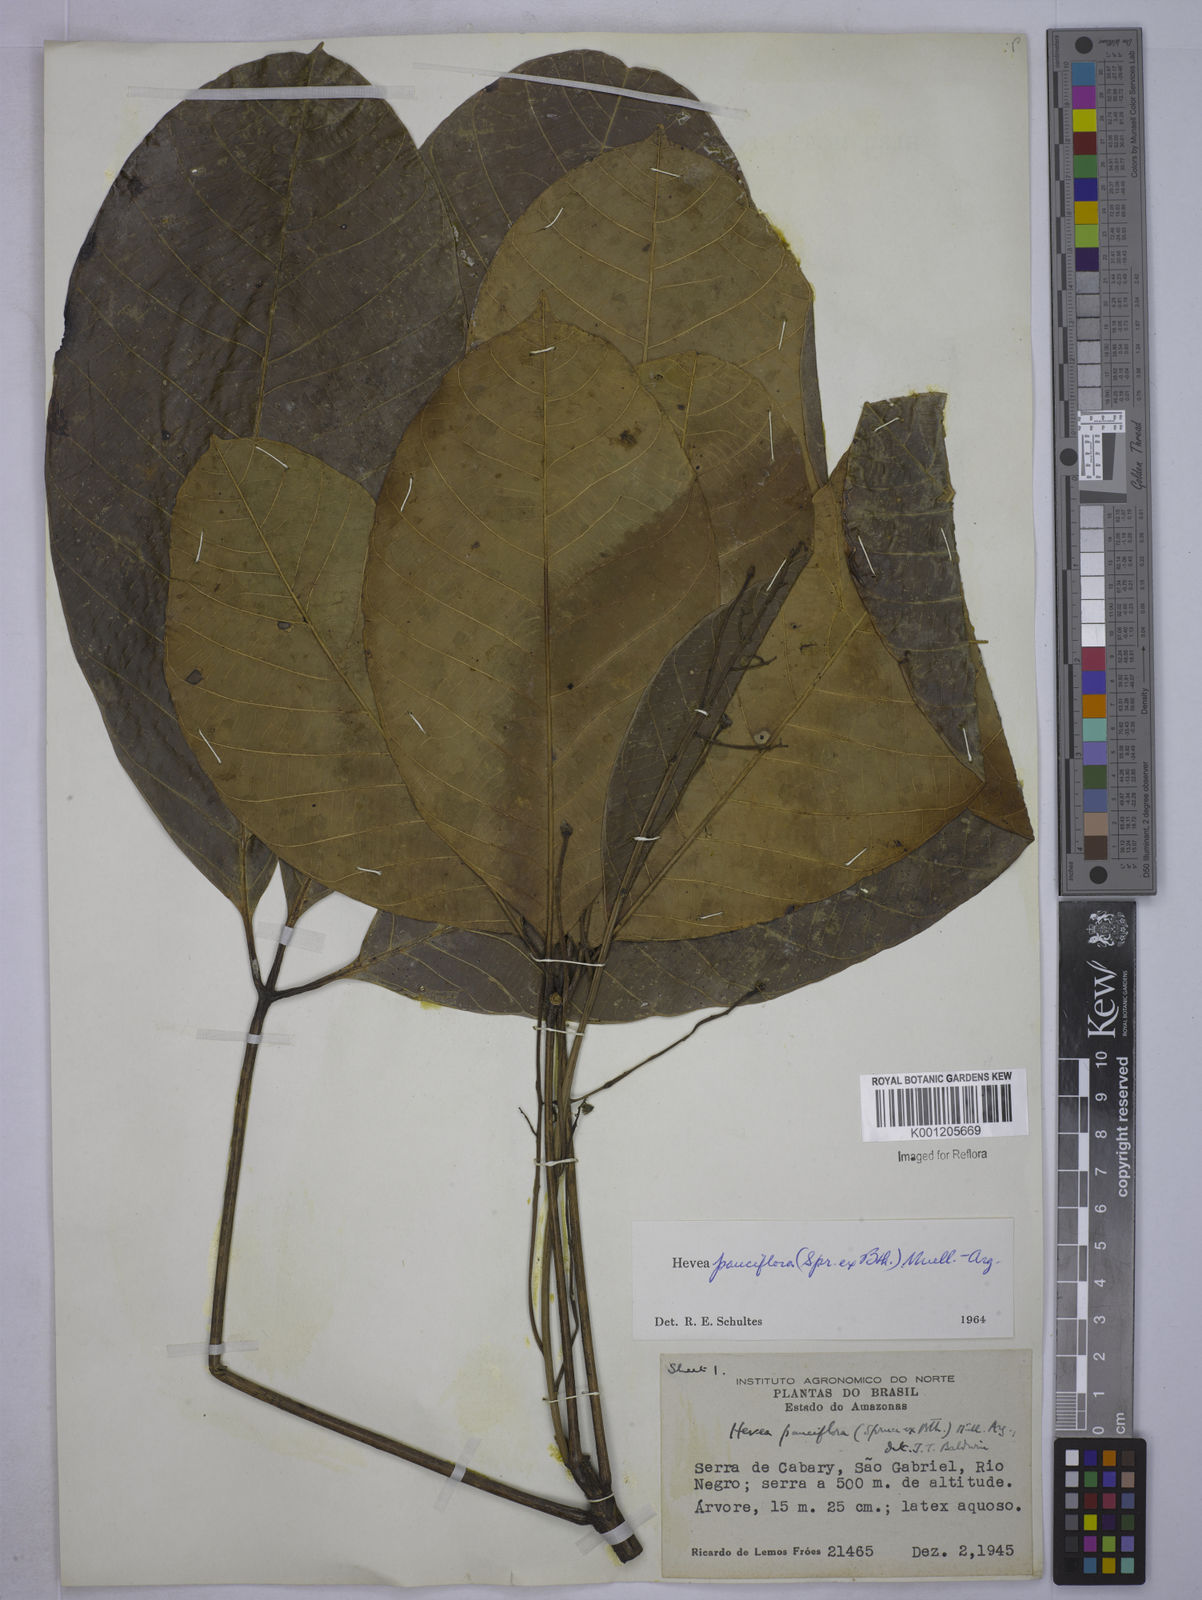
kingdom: Plantae
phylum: Tracheophyta
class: Magnoliopsida
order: Malpighiales
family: Euphorbiaceae
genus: Hevea
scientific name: Hevea pauciflora
